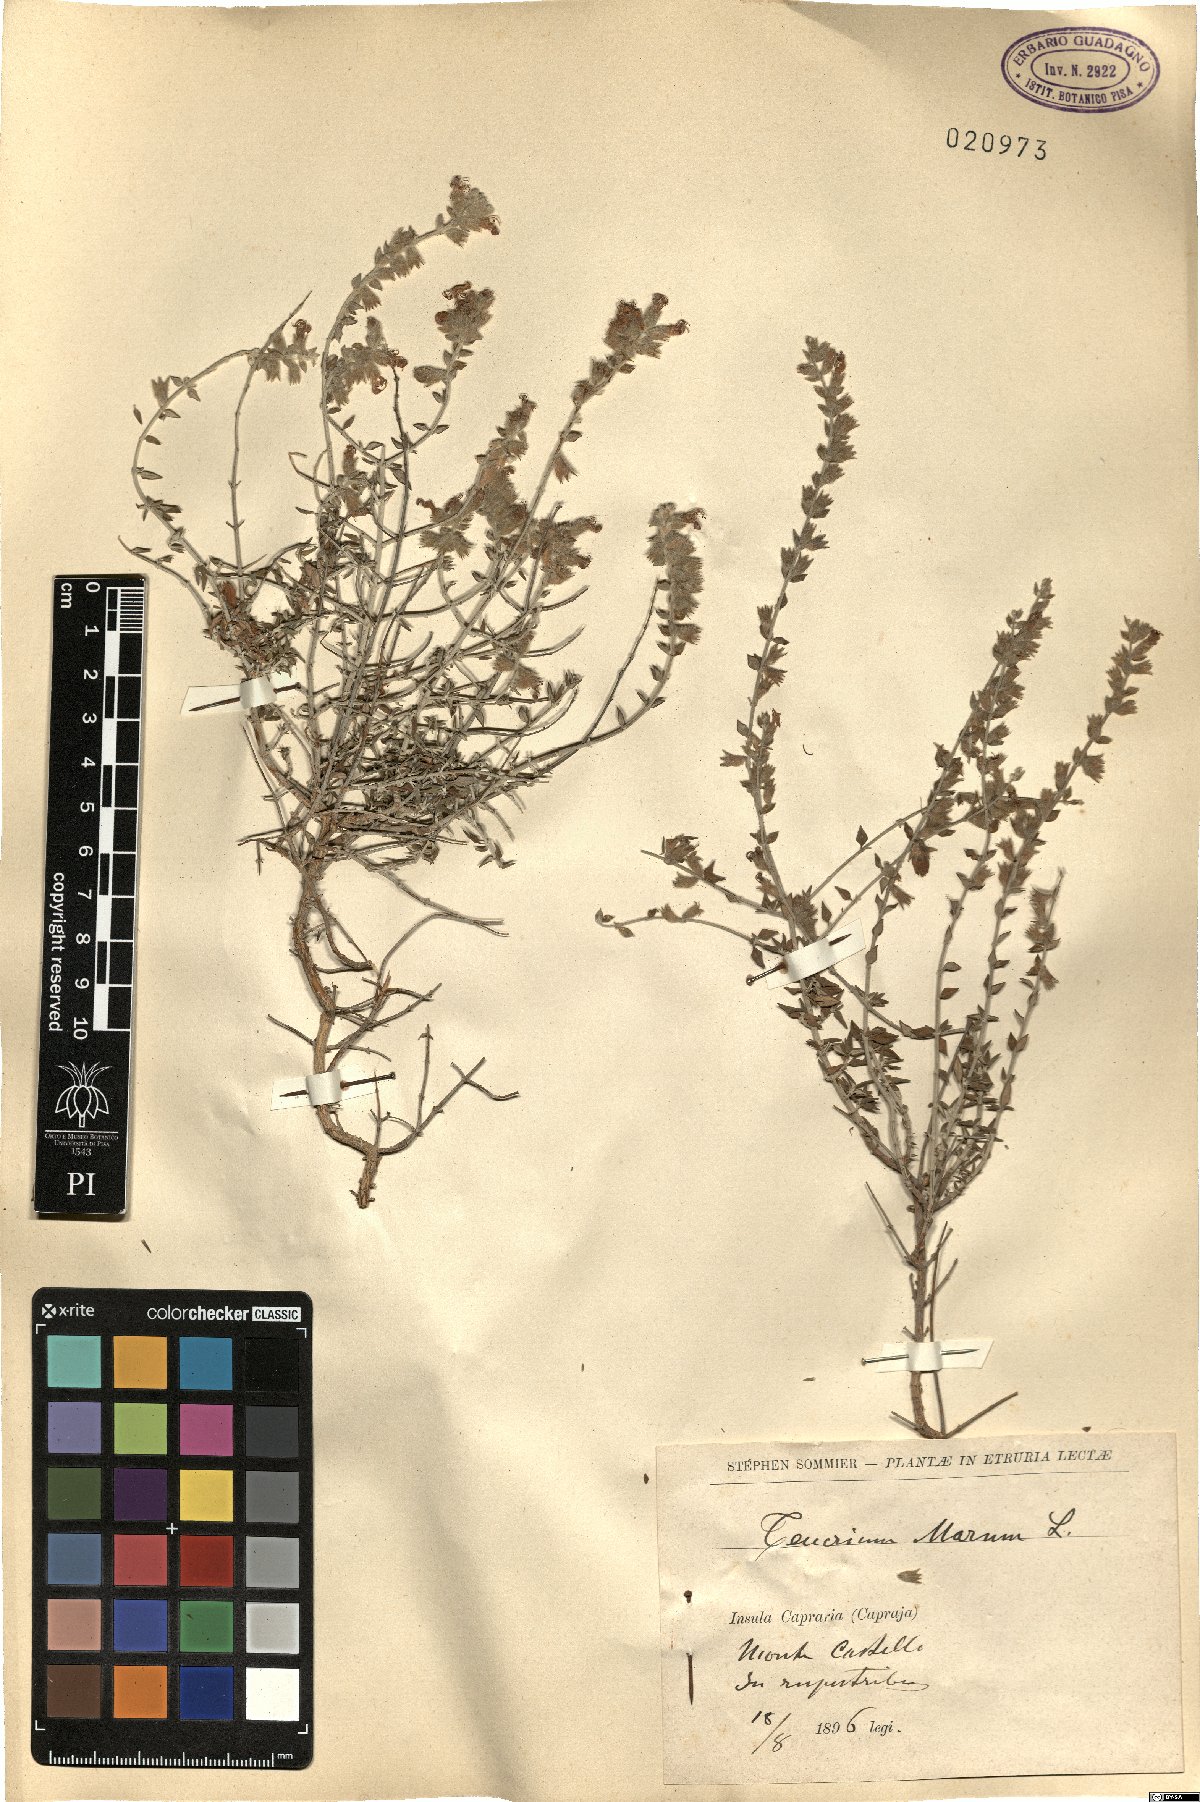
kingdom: Plantae
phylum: Tracheophyta
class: Magnoliopsida
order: Lamiales
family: Lamiaceae
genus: Teucrium
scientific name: Teucrium marum
